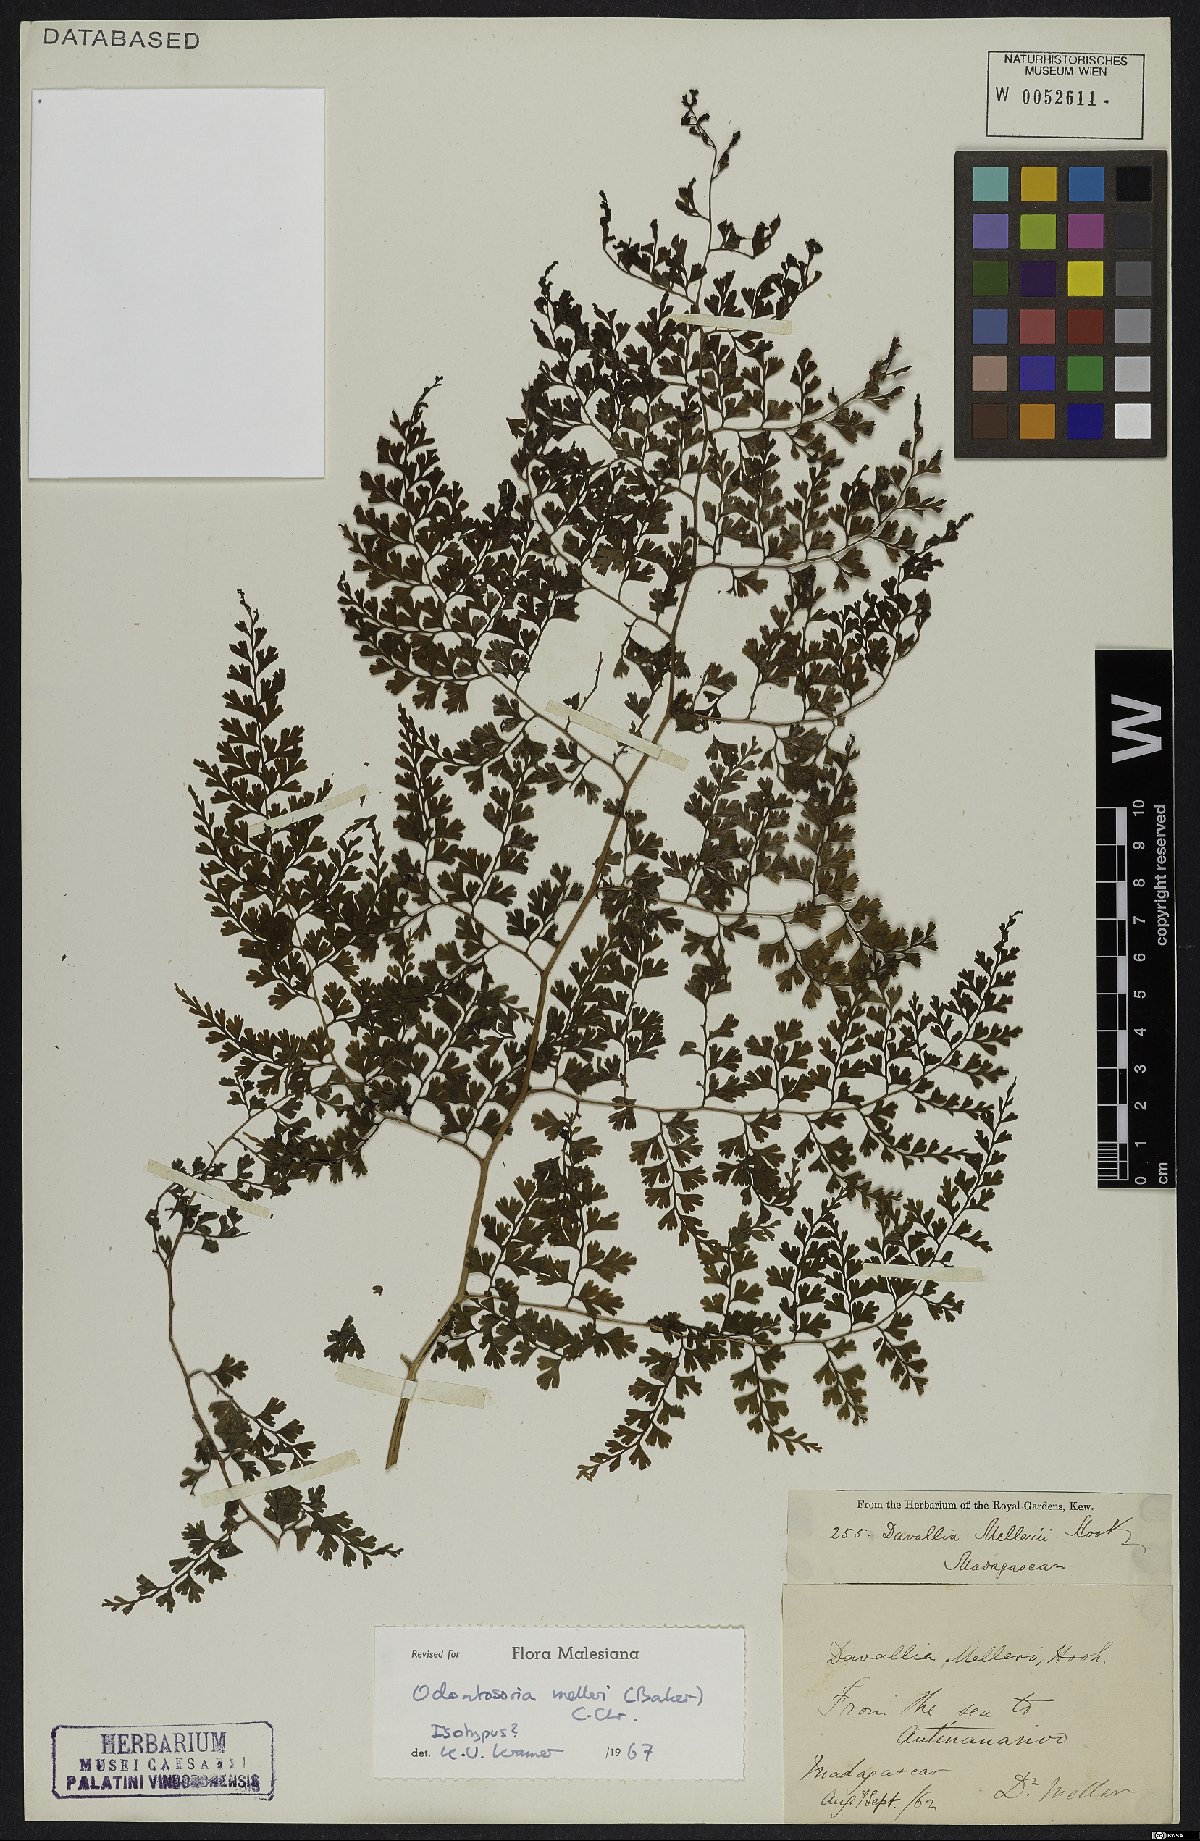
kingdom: Plantae
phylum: Tracheophyta
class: Polypodiopsida
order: Polypodiales
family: Lindsaeaceae
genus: Odontosoria
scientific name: Odontosoria melleri
